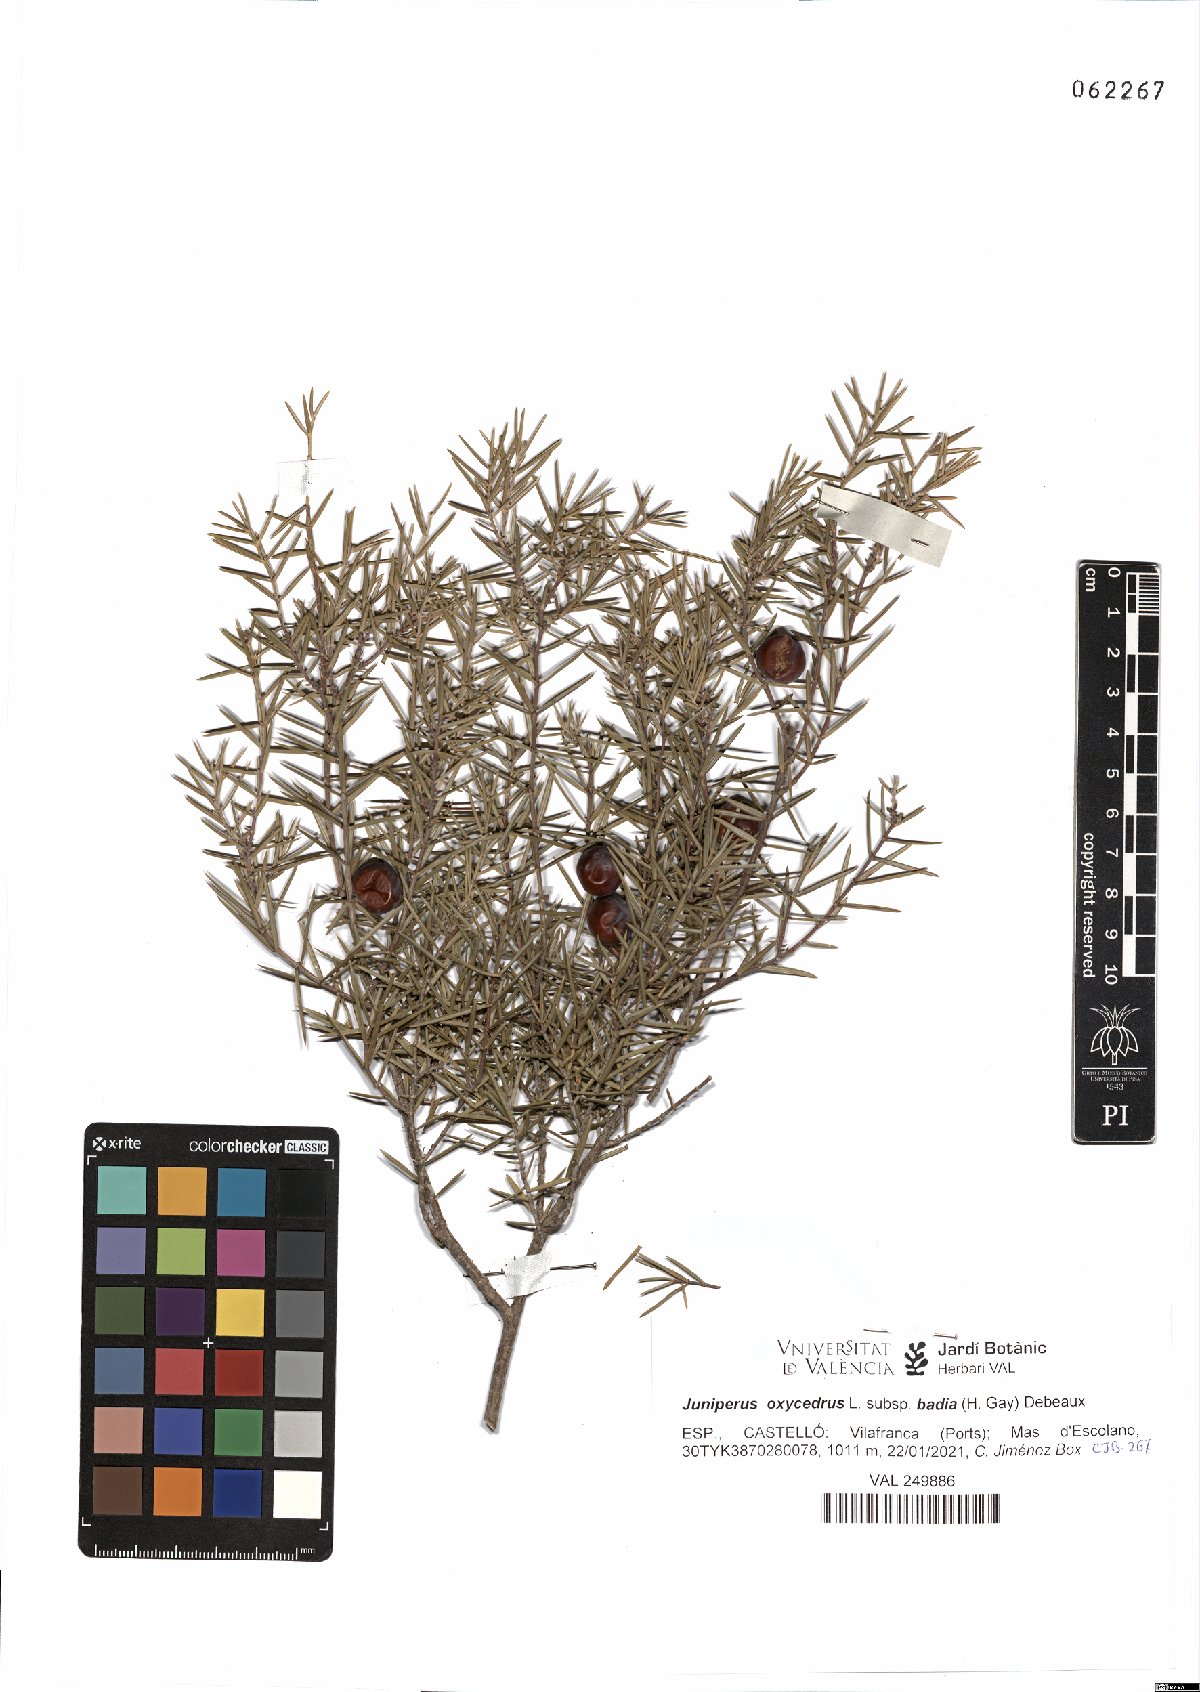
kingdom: Plantae
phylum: Tracheophyta
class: Pinopsida
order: Pinales
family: Cupressaceae
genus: Juniperus
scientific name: Juniperus oxycedrus
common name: Prickly juniper
